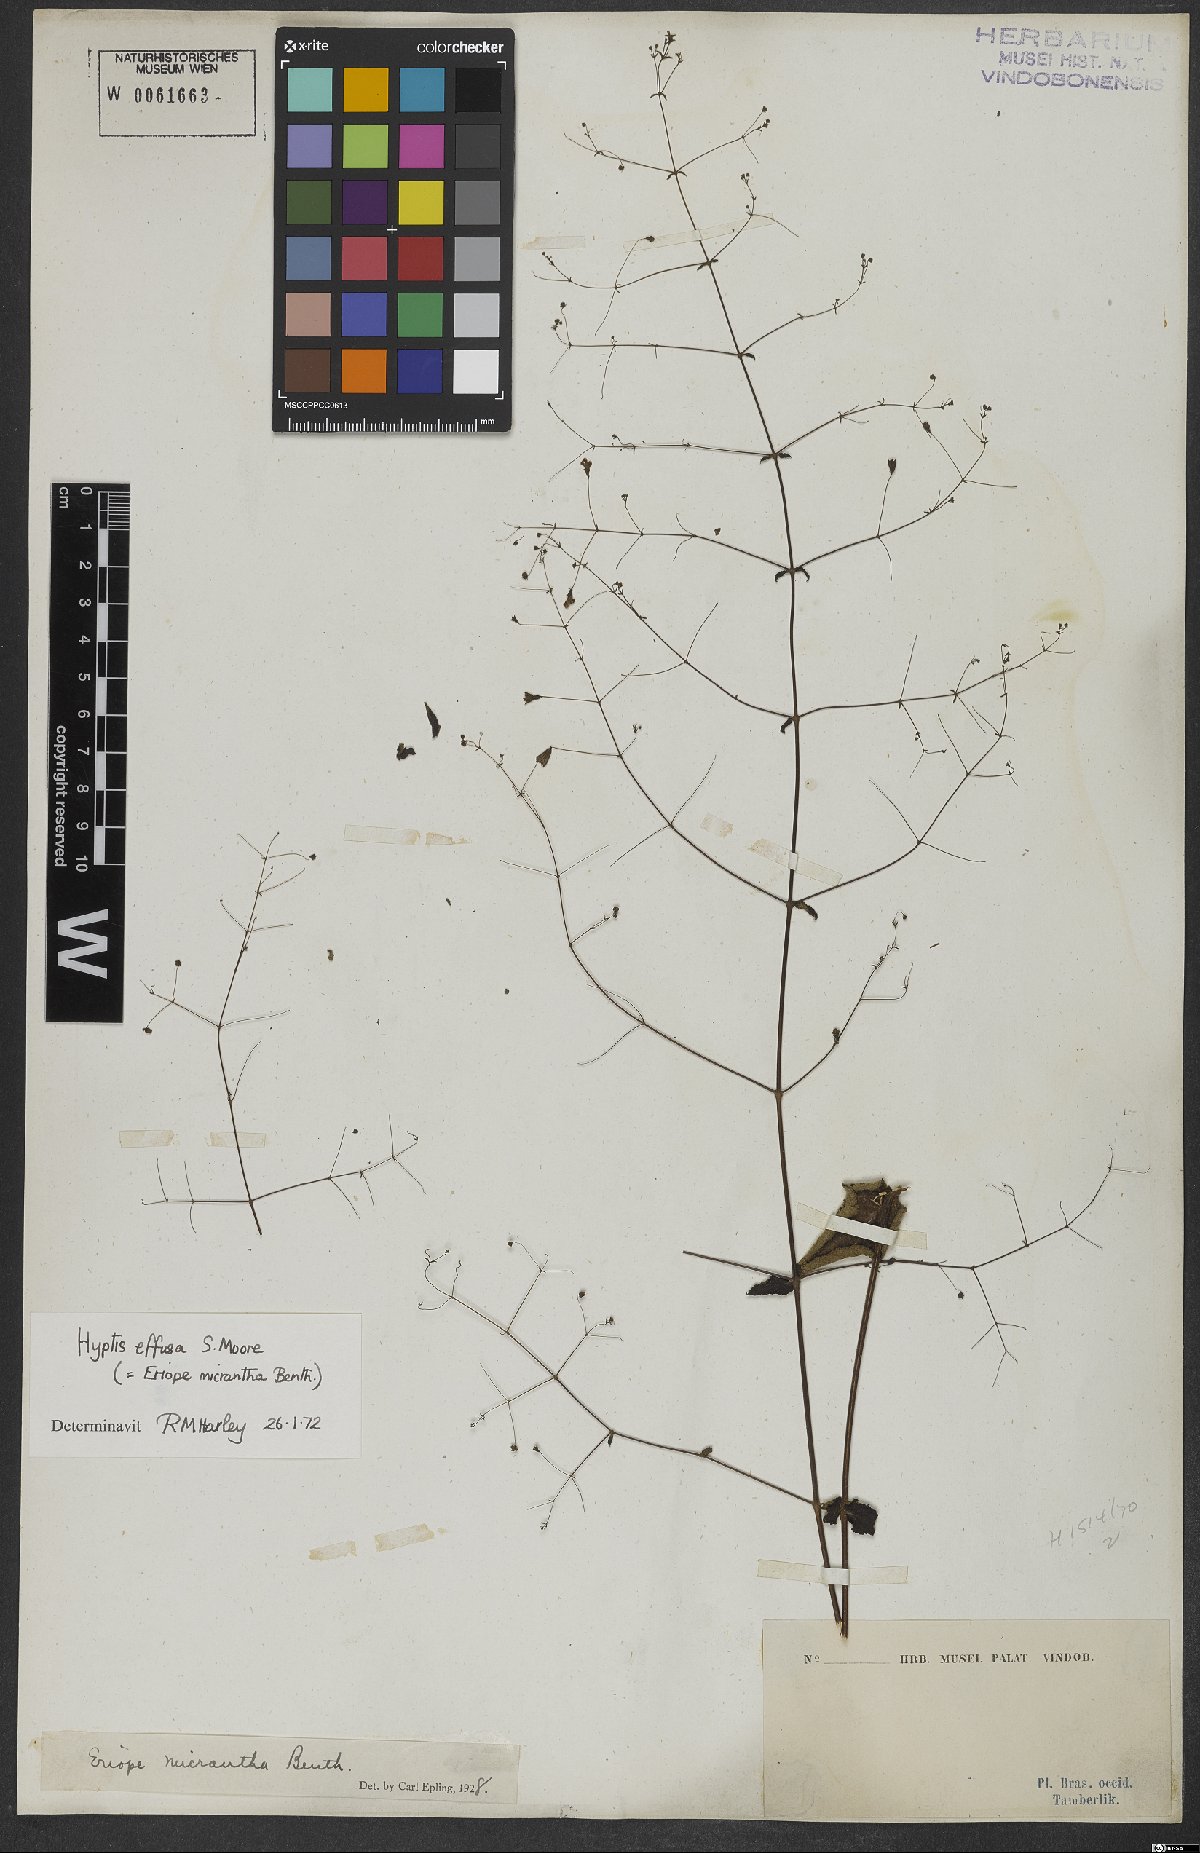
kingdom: Plantae
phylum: Tracheophyta
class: Magnoliopsida
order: Lamiales
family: Lamiaceae
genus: Hypenia
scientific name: Hypenia micrantha
